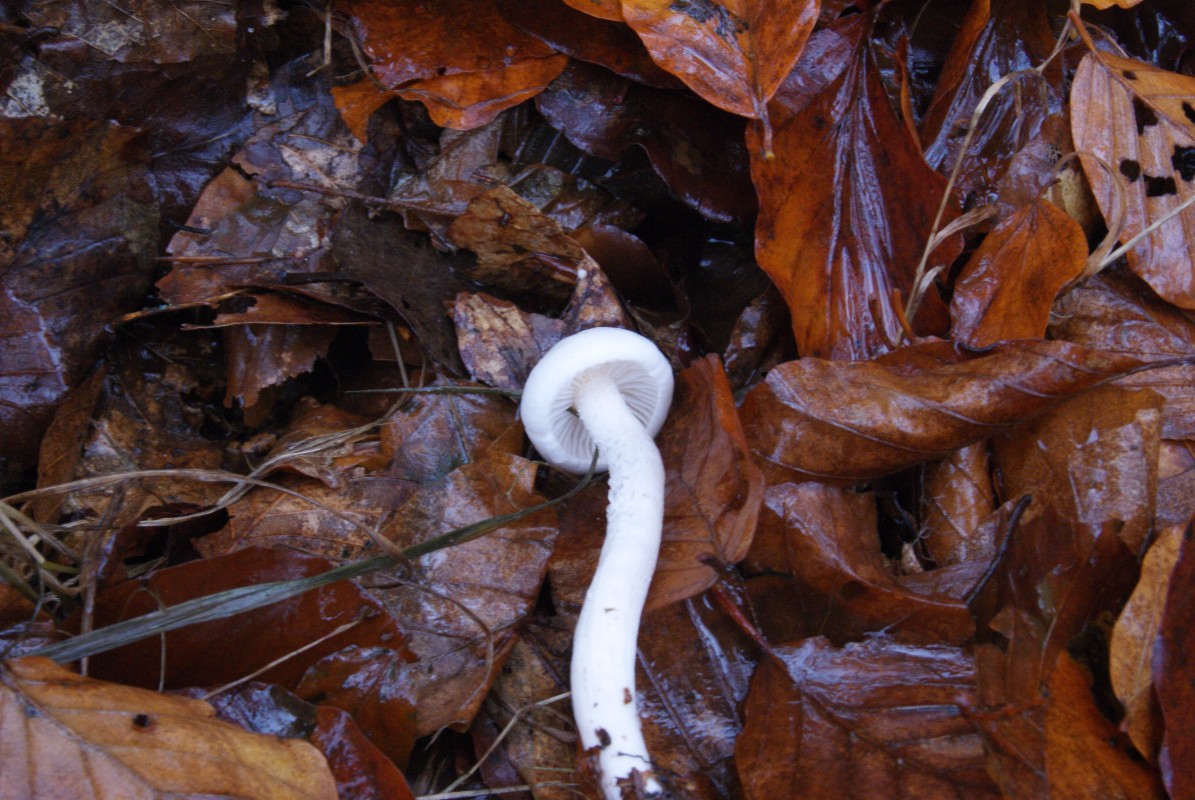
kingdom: Fungi
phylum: Basidiomycota
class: Agaricomycetes
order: Agaricales
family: Hygrophoraceae
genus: Hygrophorus
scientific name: Hygrophorus eburneus
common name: elfenbens-sneglehat
